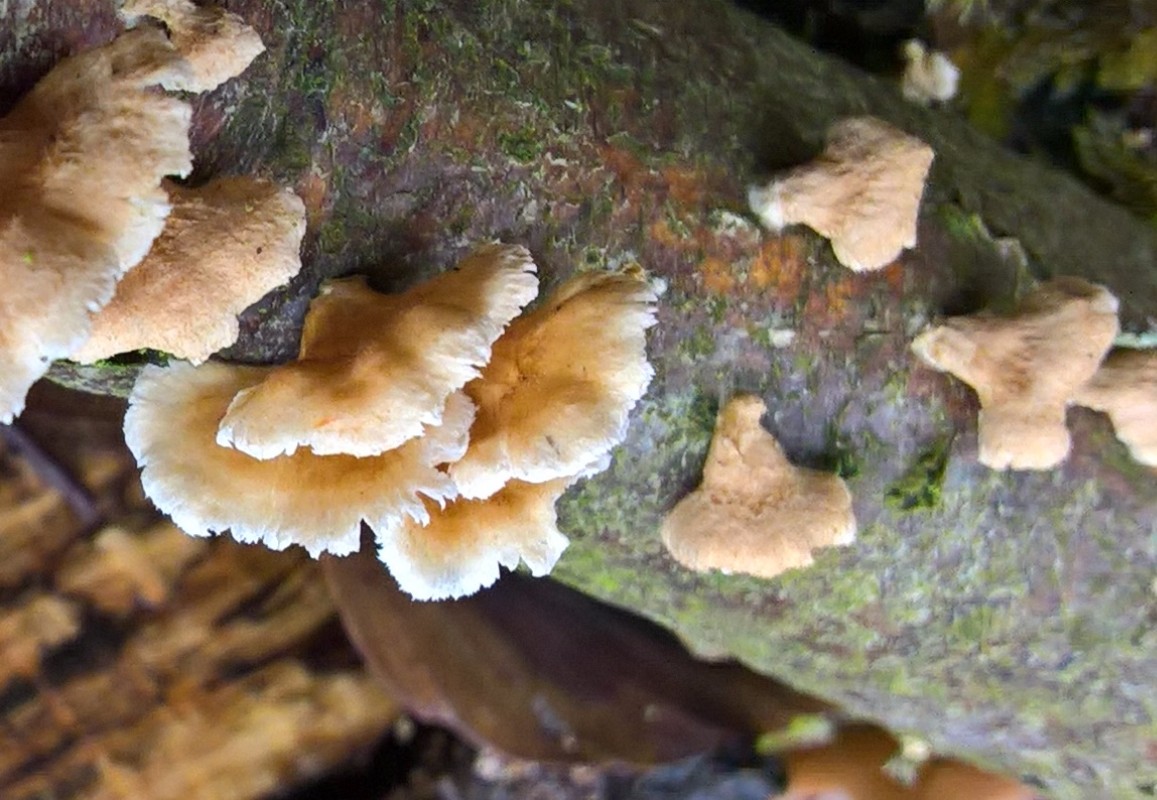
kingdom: Fungi
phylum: Basidiomycota
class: Agaricomycetes
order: Amylocorticiales
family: Amylocorticiaceae
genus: Plicaturopsis
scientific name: Plicaturopsis crispa
